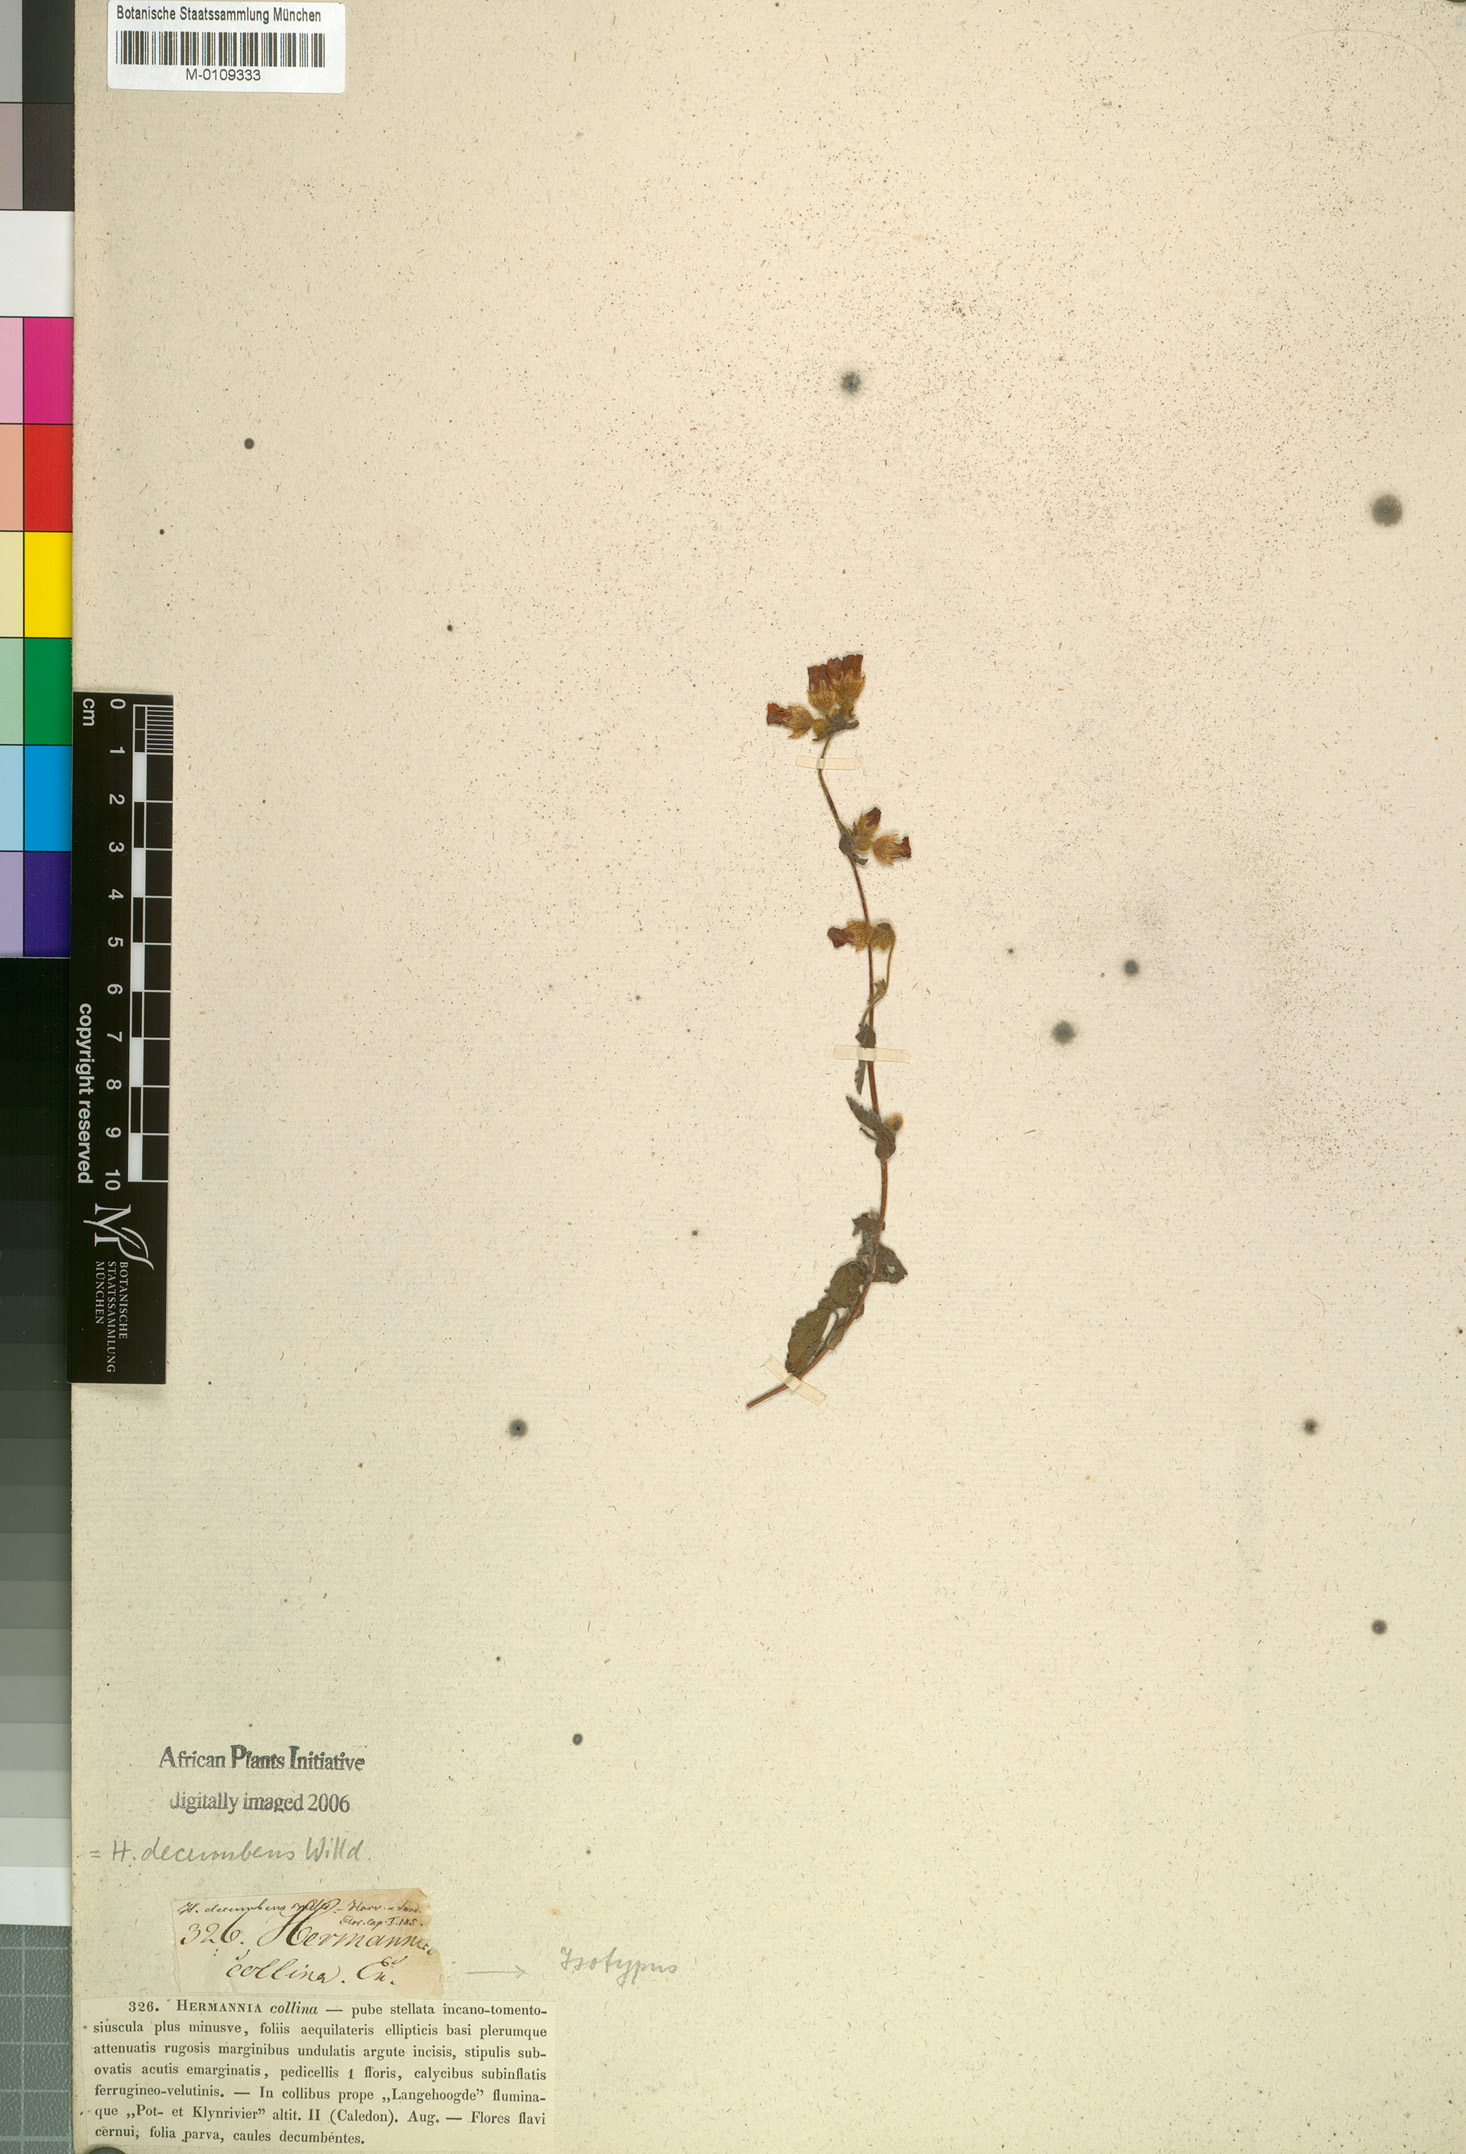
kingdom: Plantae
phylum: Tracheophyta
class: Magnoliopsida
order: Malvales
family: Malvaceae
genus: Hermannia
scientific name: Hermannia decumbens
